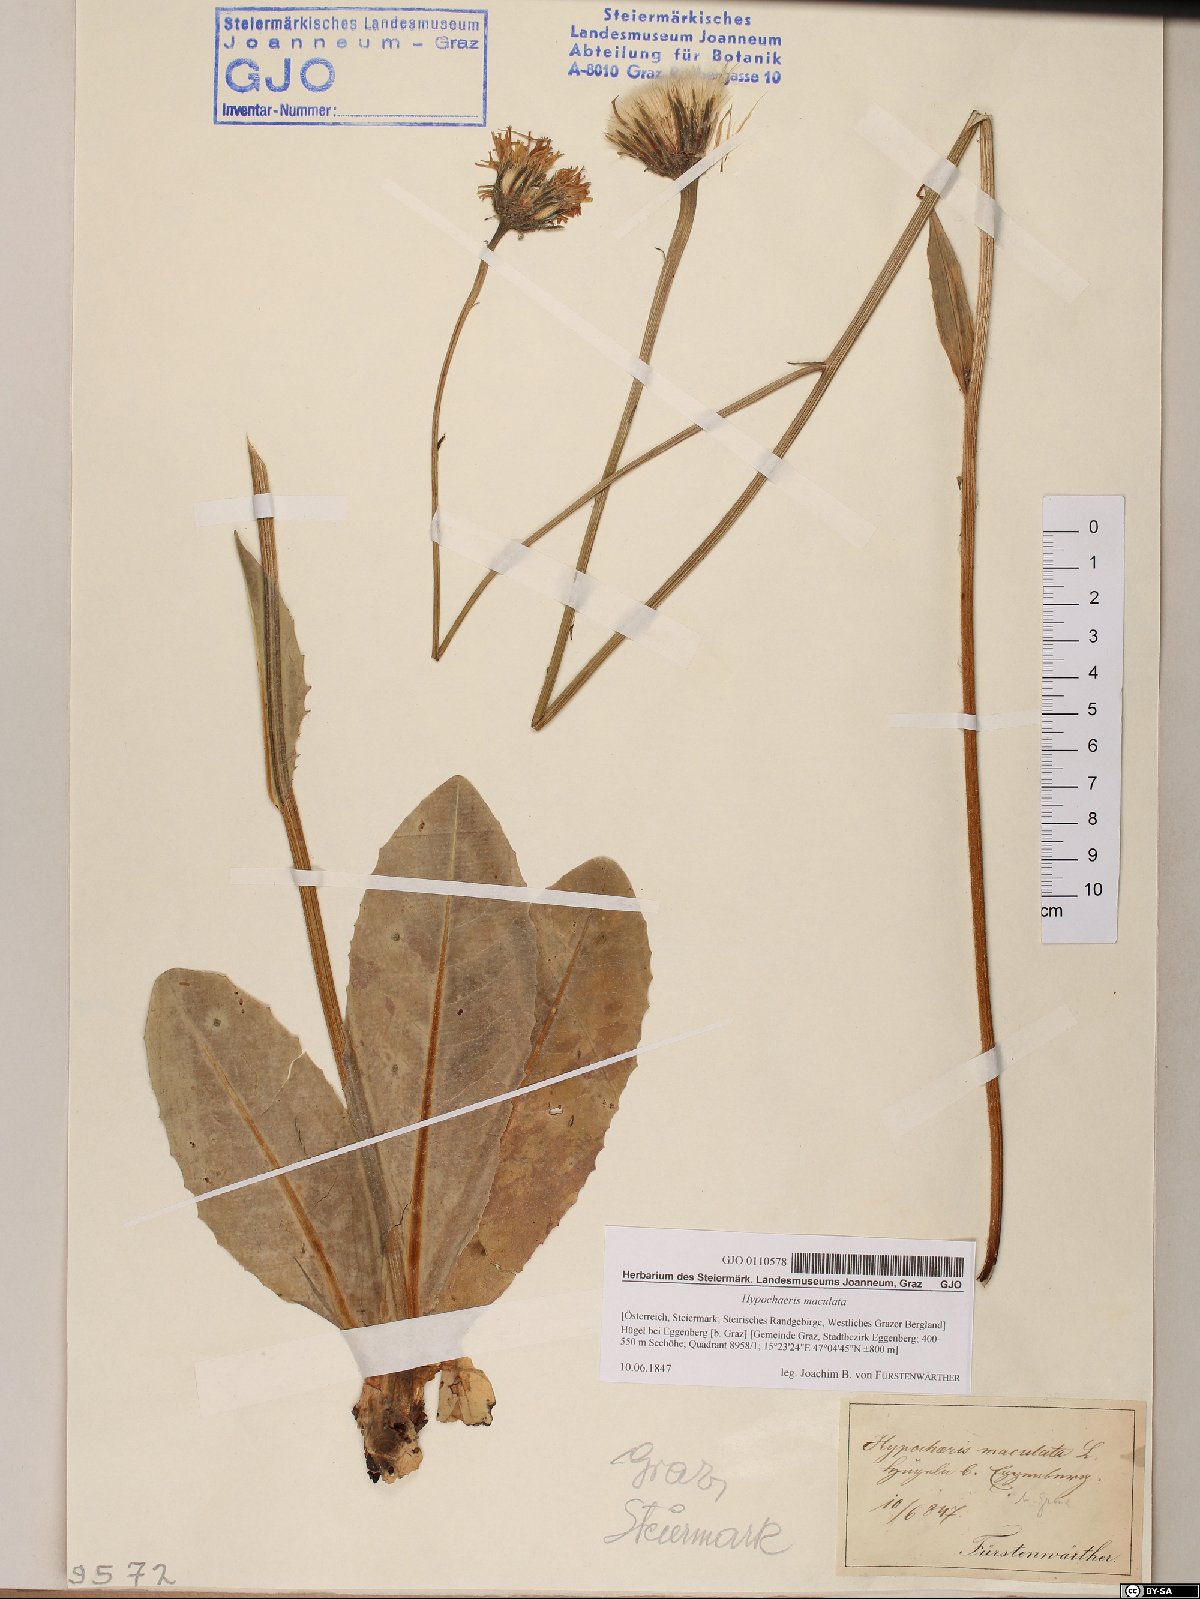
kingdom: Plantae
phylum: Tracheophyta
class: Magnoliopsida
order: Asterales
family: Asteraceae
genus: Trommsdorffia
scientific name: Trommsdorffia maculata
